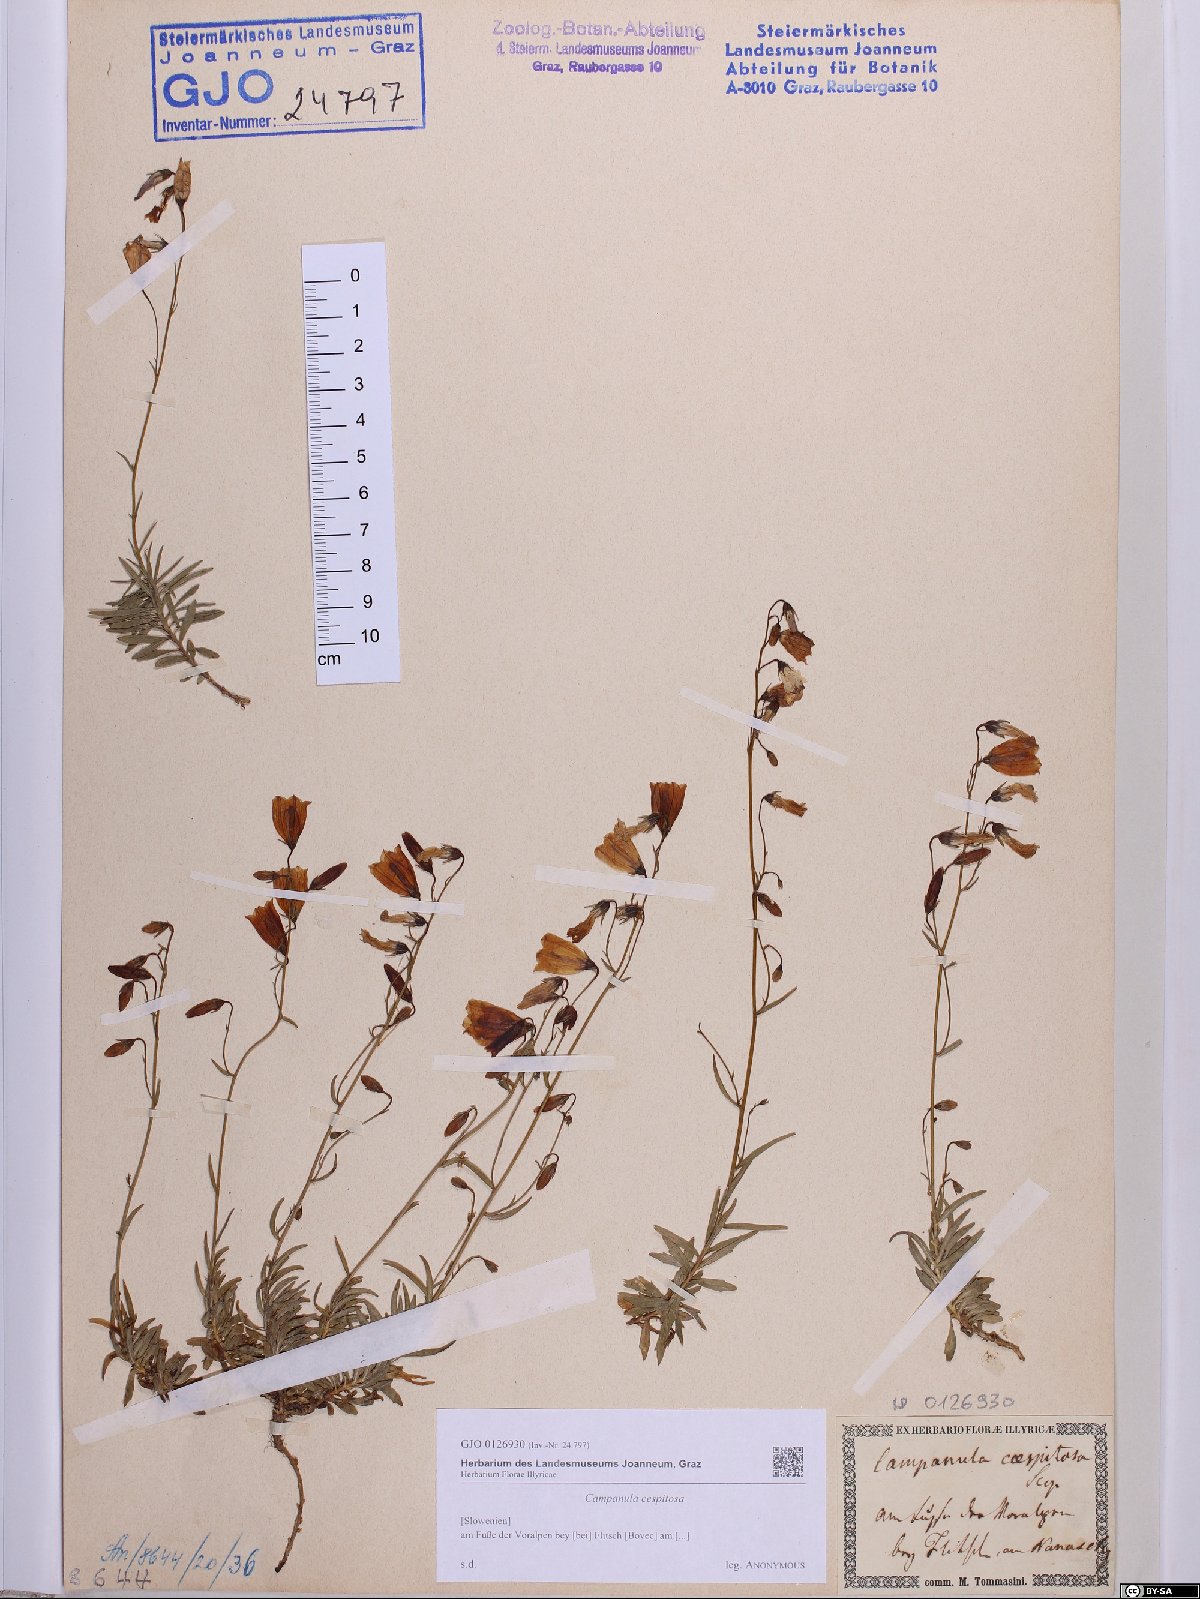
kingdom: Plantae
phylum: Tracheophyta
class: Magnoliopsida
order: Asterales
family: Campanulaceae
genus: Campanula
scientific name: Campanula cespitosa
